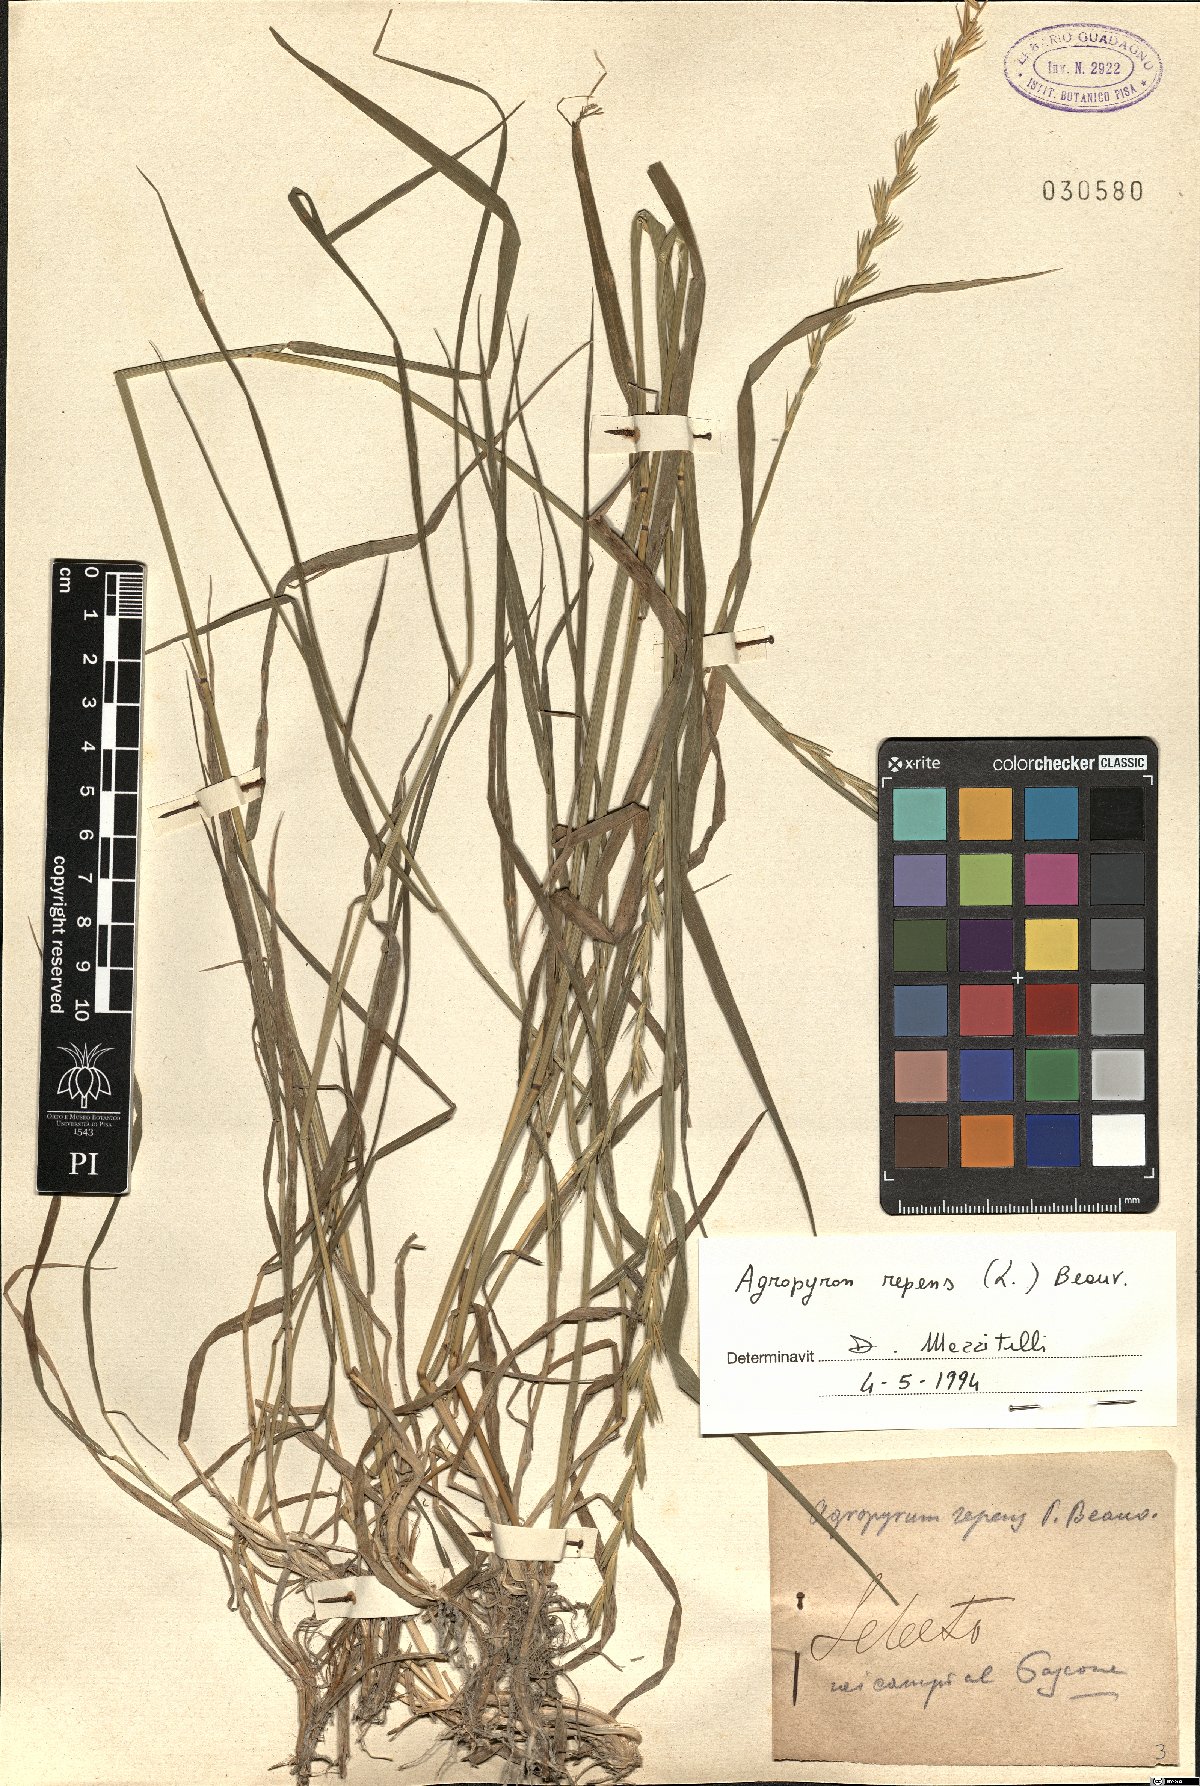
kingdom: Plantae
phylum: Tracheophyta
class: Liliopsida
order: Poales
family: Poaceae
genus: Elymus
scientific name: Elymus repens
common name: Quackgrass
